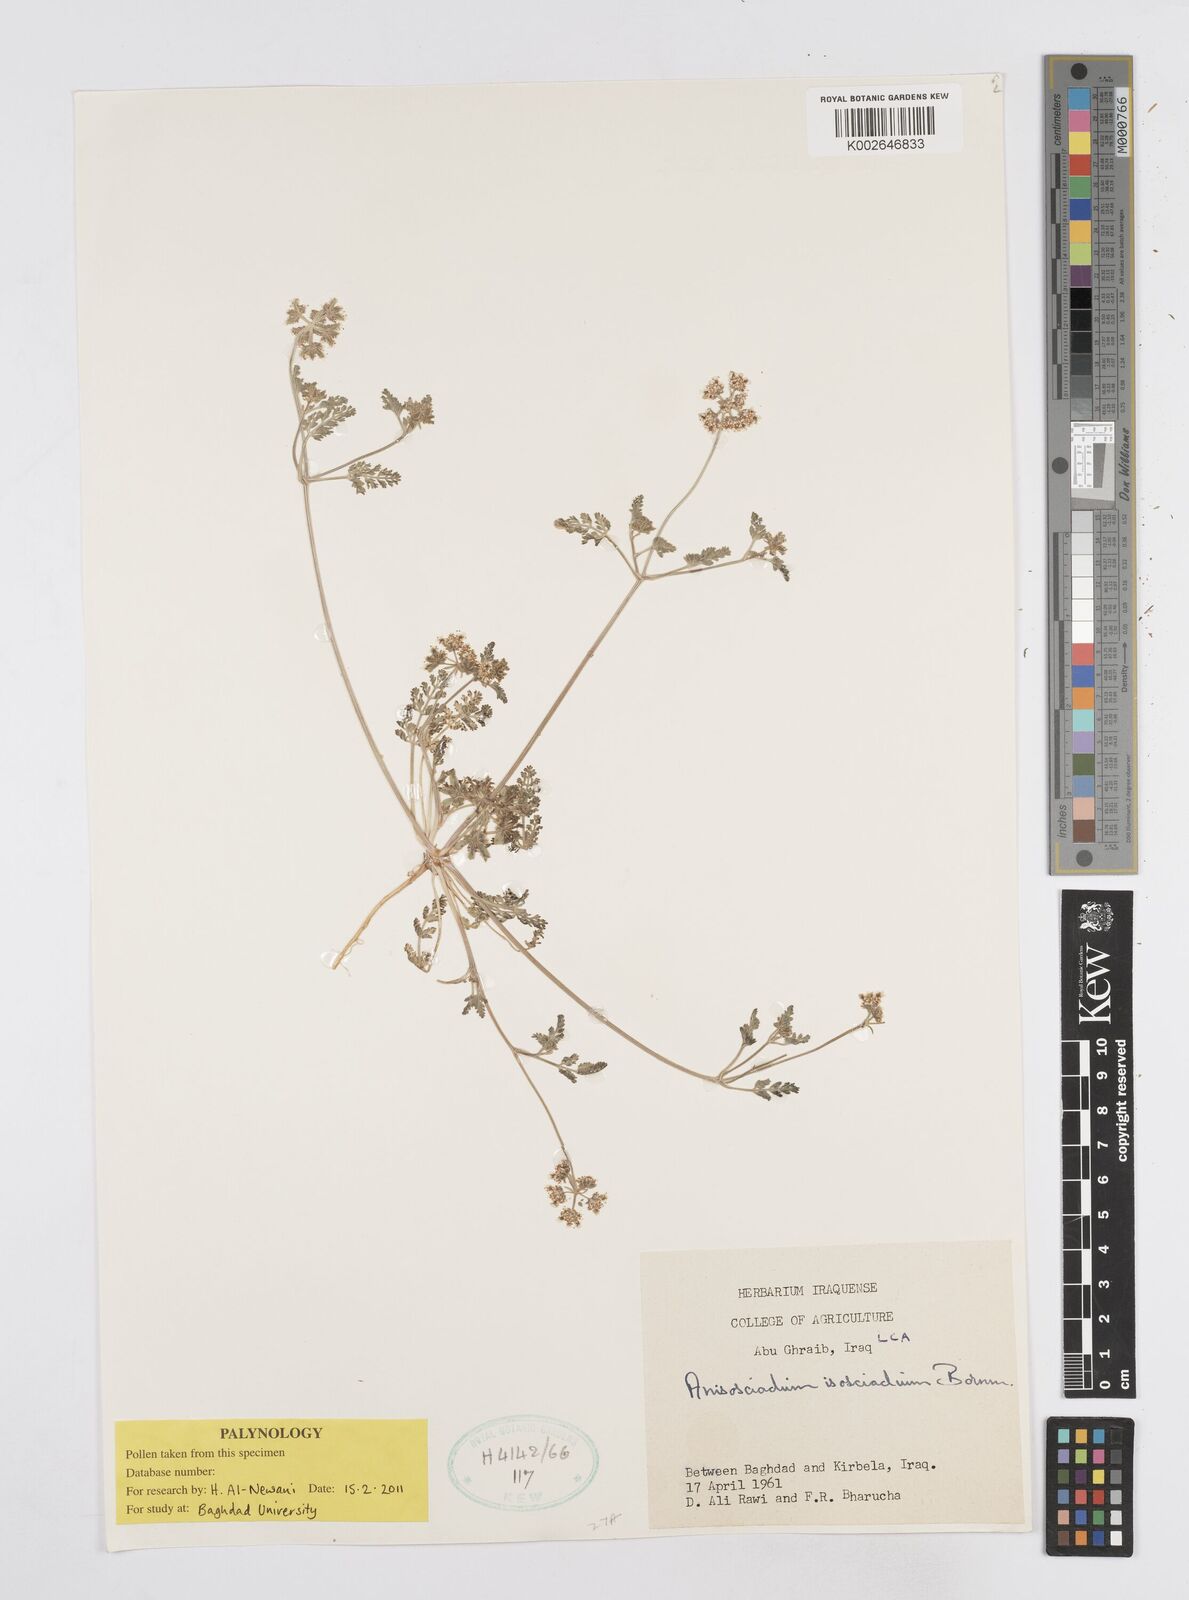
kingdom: Plantae
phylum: Tracheophyta
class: Magnoliopsida
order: Apiales
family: Apiaceae
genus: Anisosciadium
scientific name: Anisosciadium isosciadium
